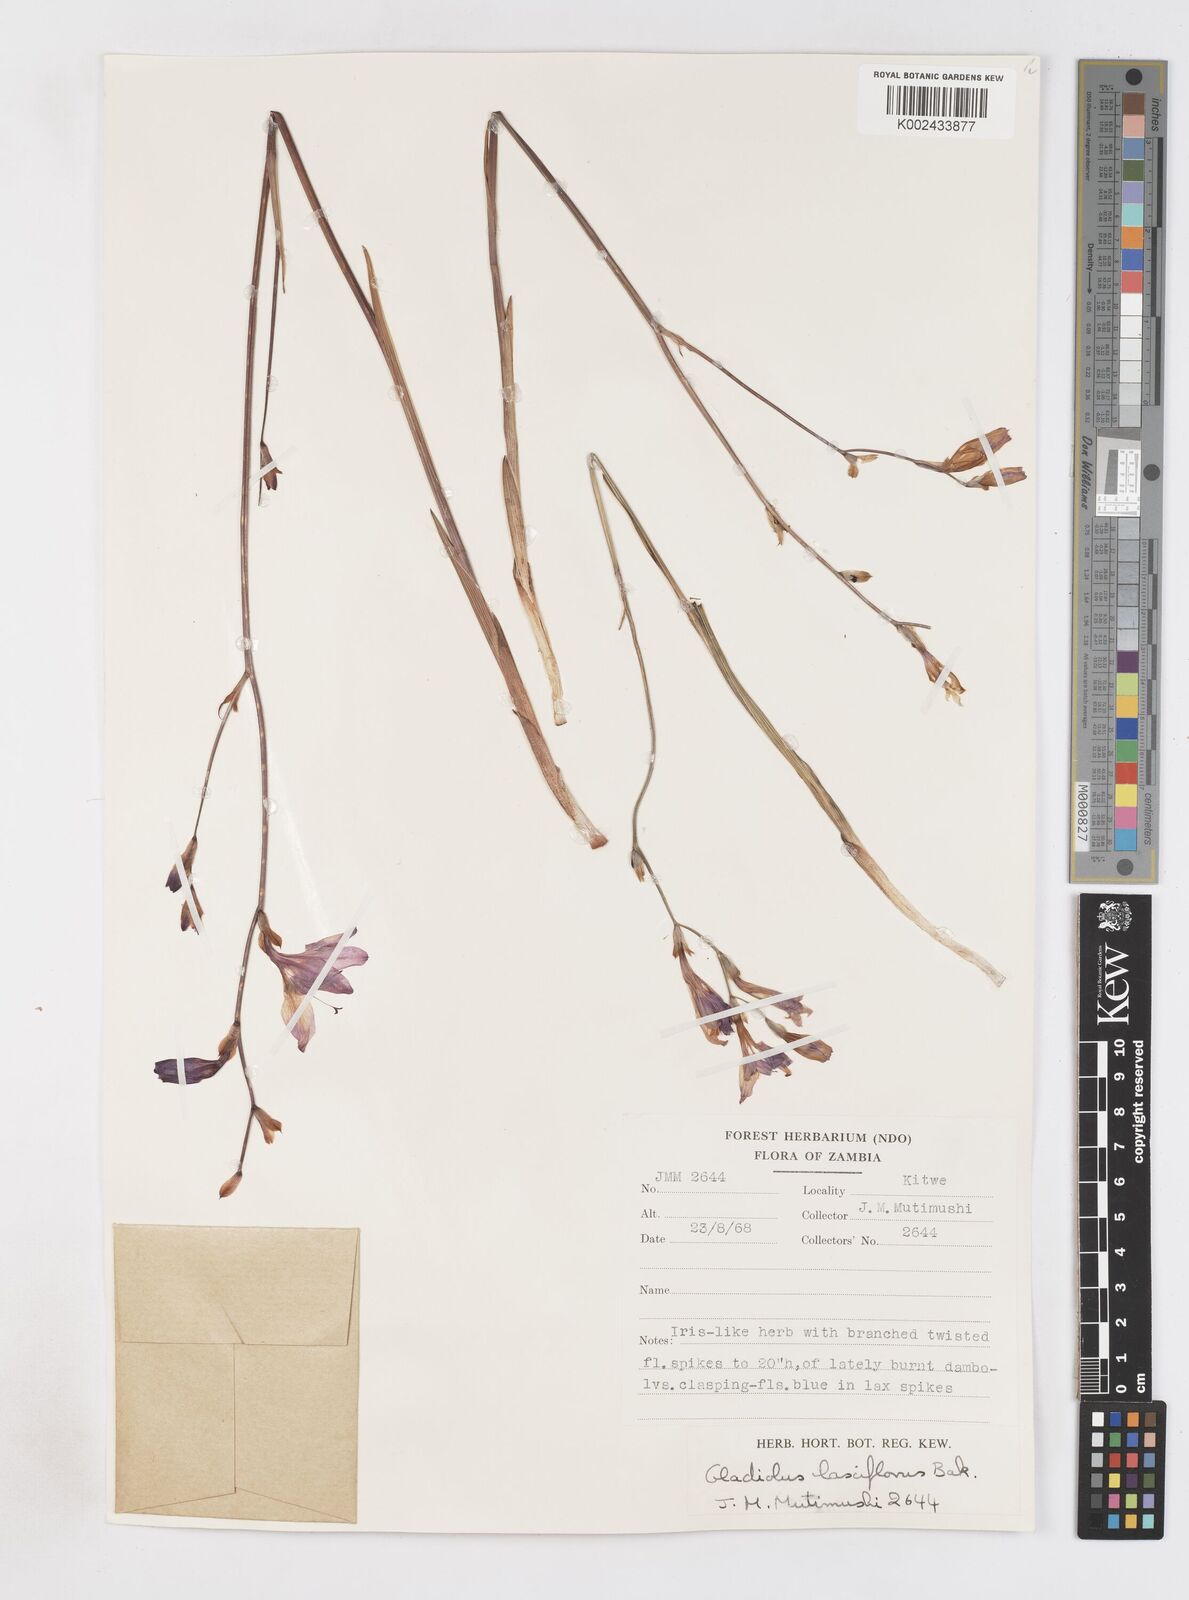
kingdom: Plantae
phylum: Tracheophyta
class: Liliopsida
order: Asparagales
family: Iridaceae
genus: Gladiolus
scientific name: Gladiolus laxiflorus
